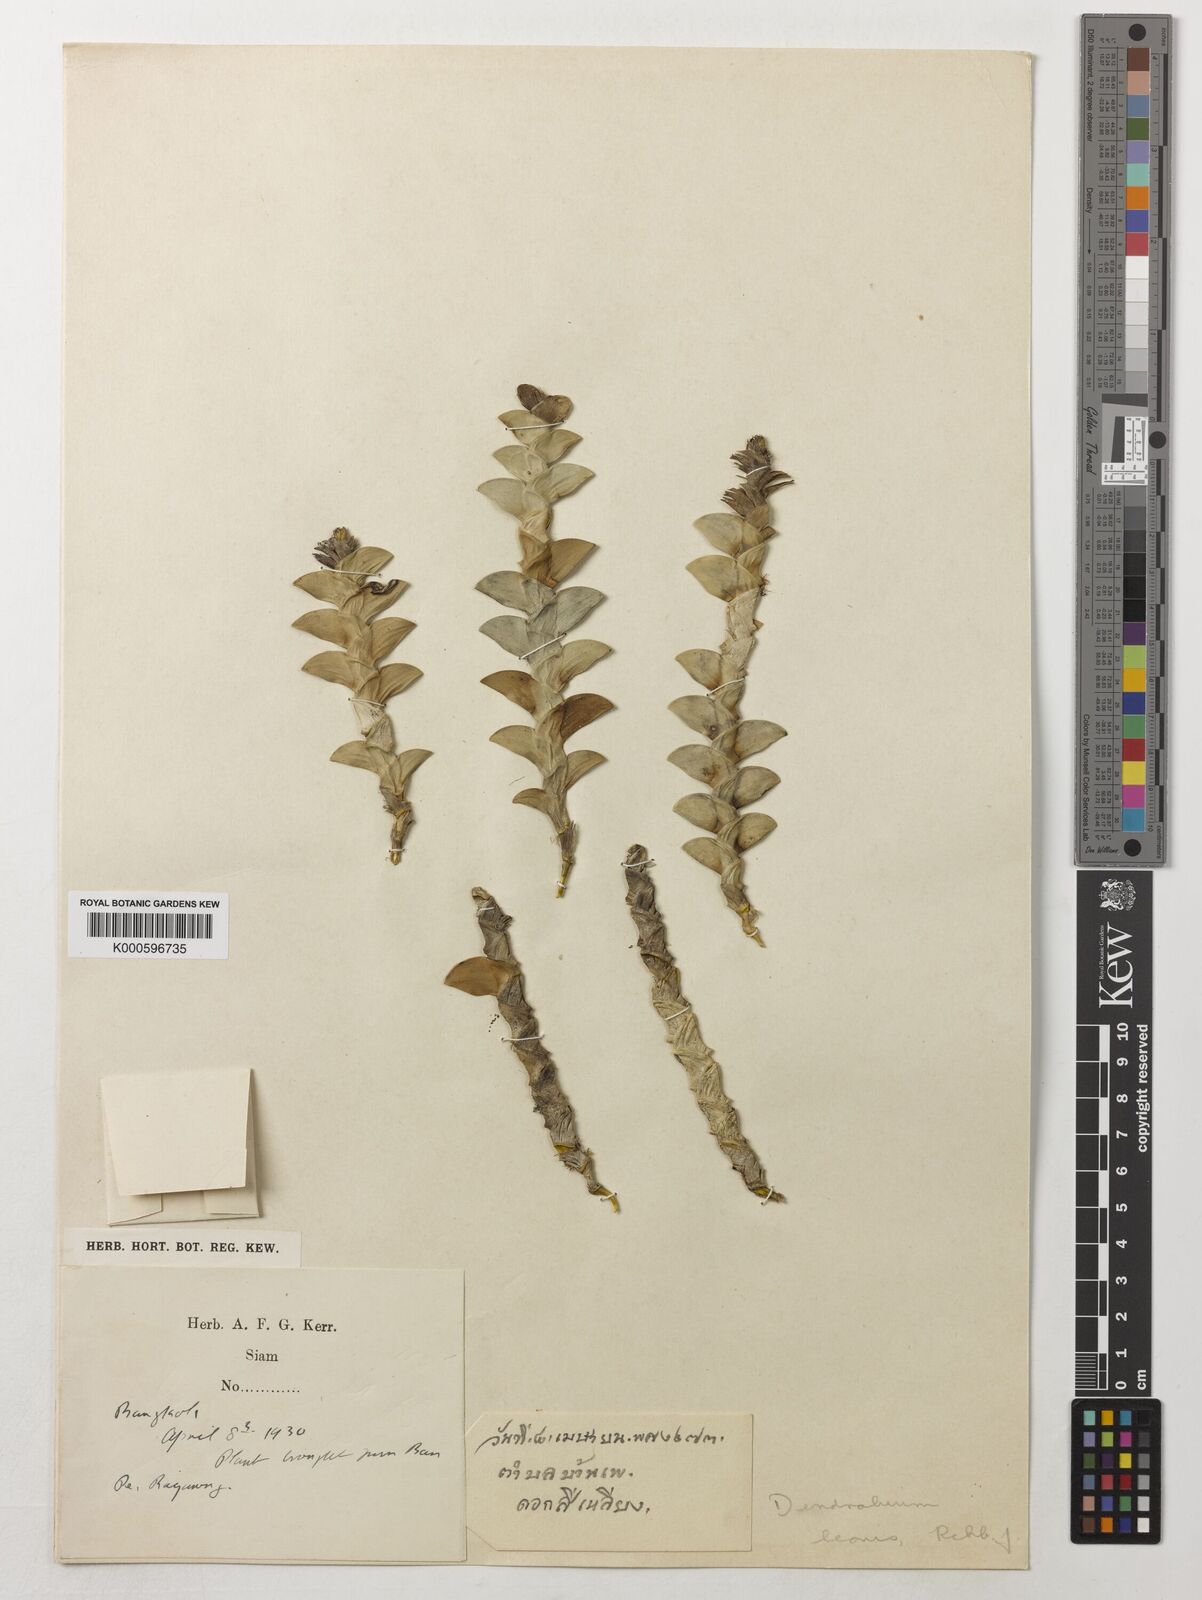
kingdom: Plantae
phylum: Tracheophyta
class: Liliopsida
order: Asparagales
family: Orchidaceae
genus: Dendrobium
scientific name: Dendrobium leonis
